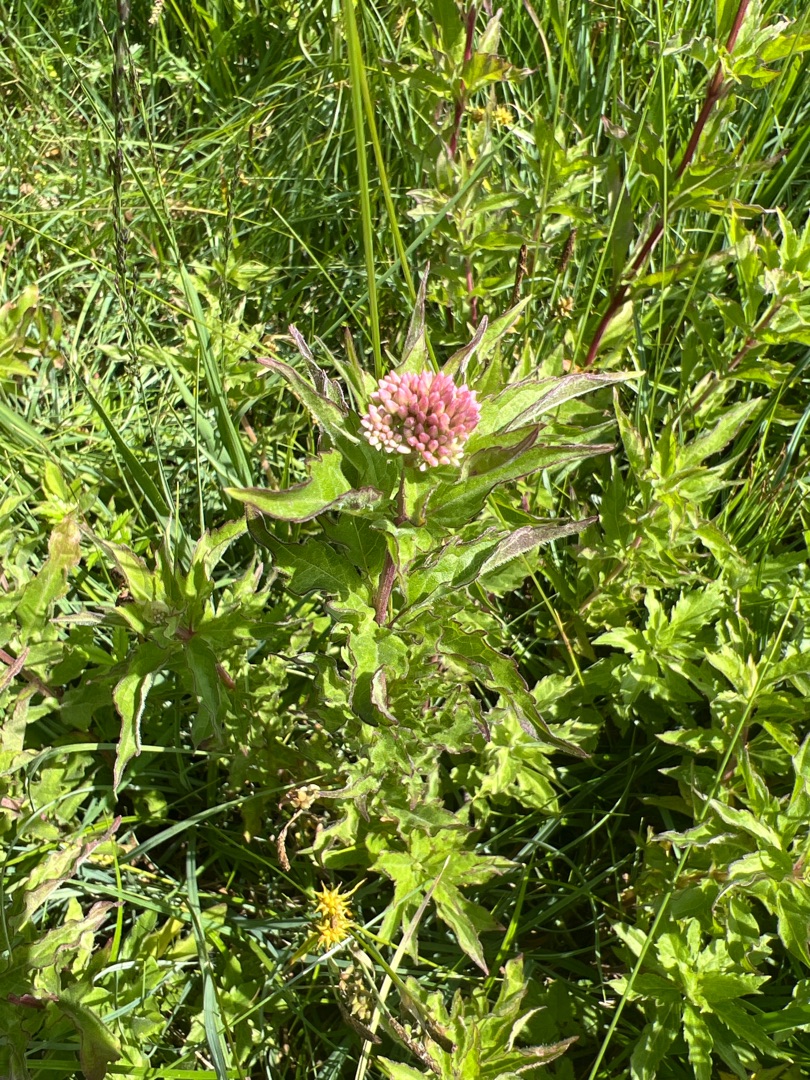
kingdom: Plantae
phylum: Tracheophyta
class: Magnoliopsida
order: Asterales
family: Asteraceae
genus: Eupatorium
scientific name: Eupatorium cannabinum
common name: Hjortetrøst
